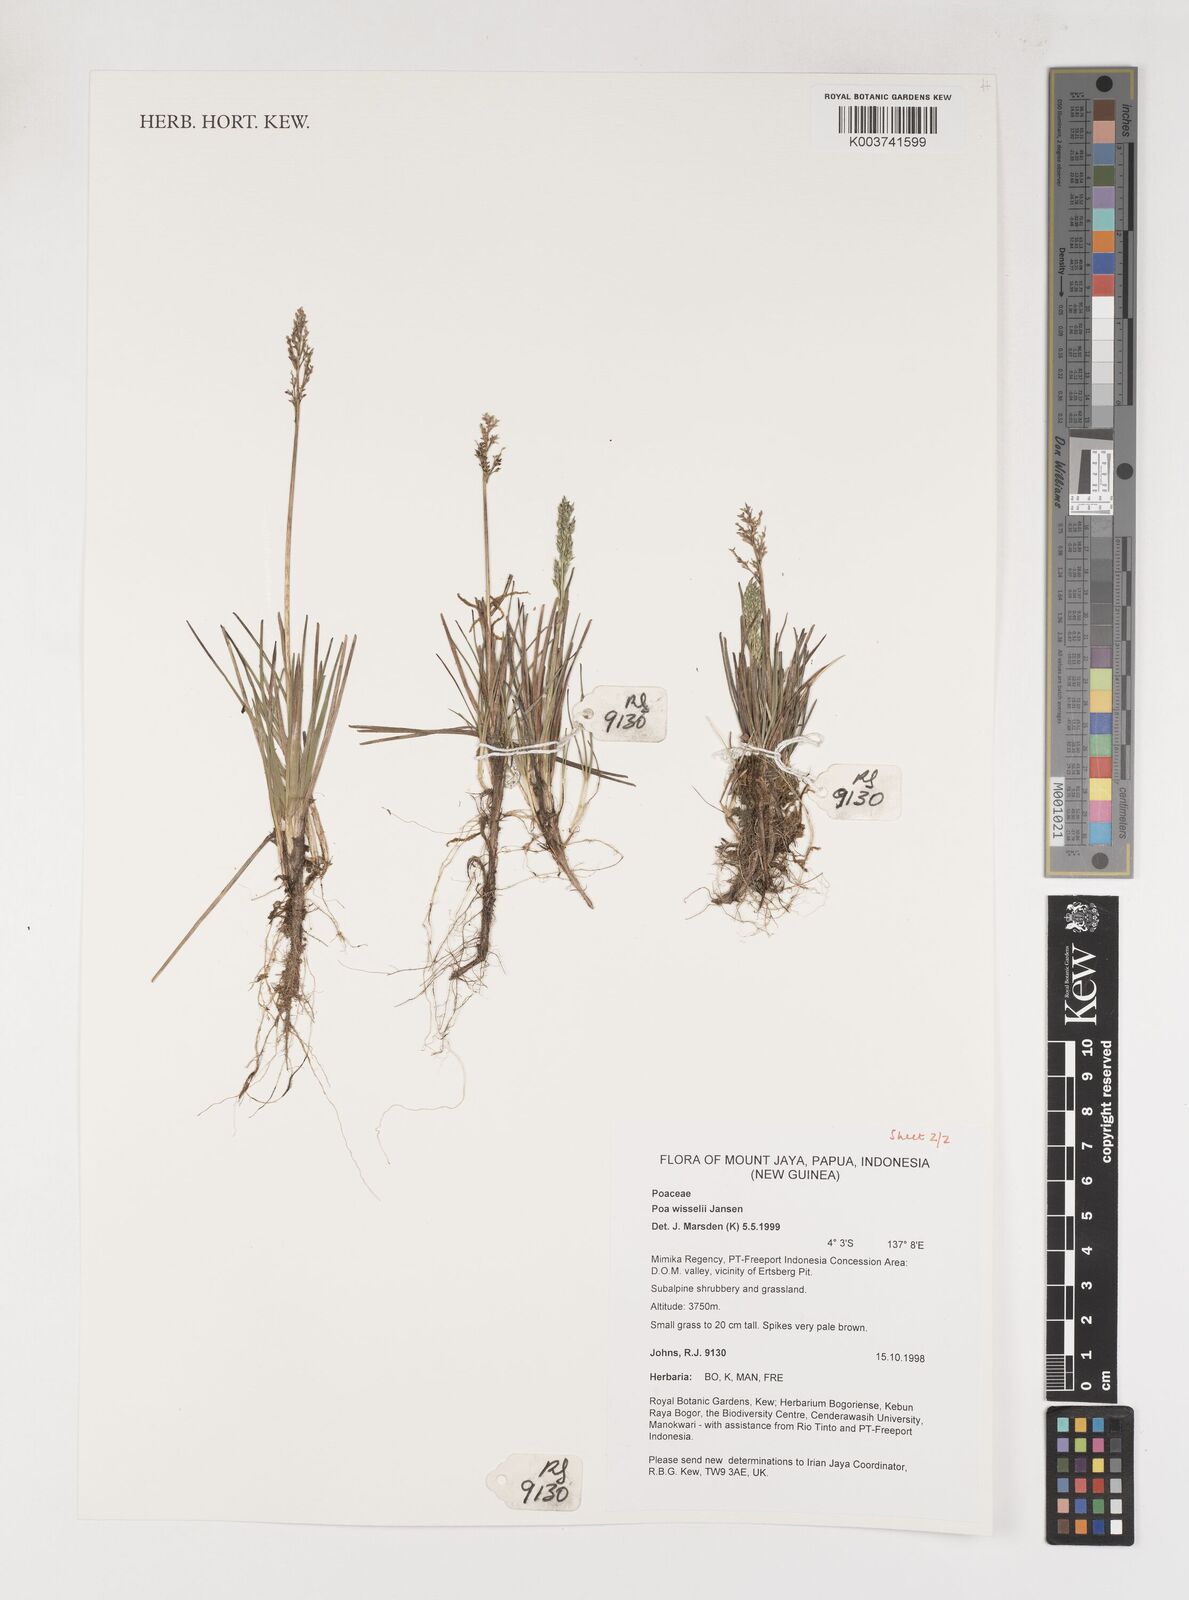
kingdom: Plantae
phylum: Tracheophyta
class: Liliopsida
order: Poales
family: Poaceae
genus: Poa
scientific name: Poa wisselii
